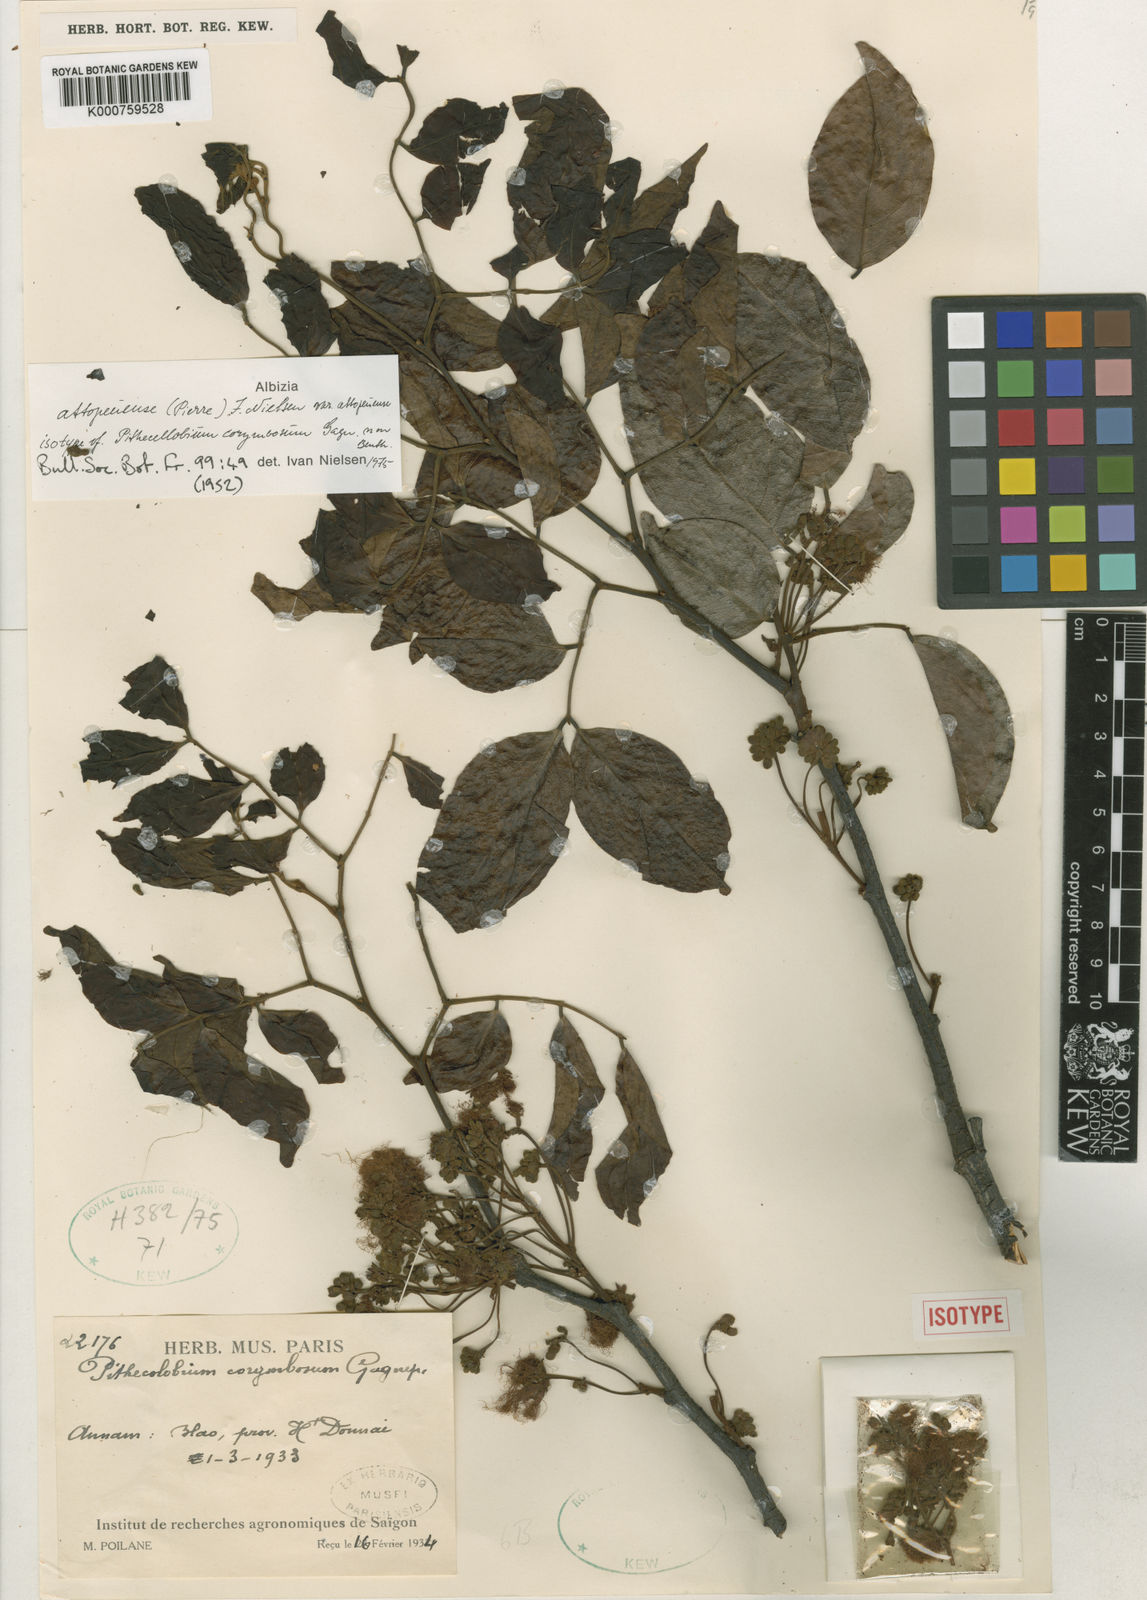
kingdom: Plantae
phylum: Tracheophyta
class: Magnoliopsida
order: Fabales
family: Fabaceae
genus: Albizia
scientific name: Albizia
